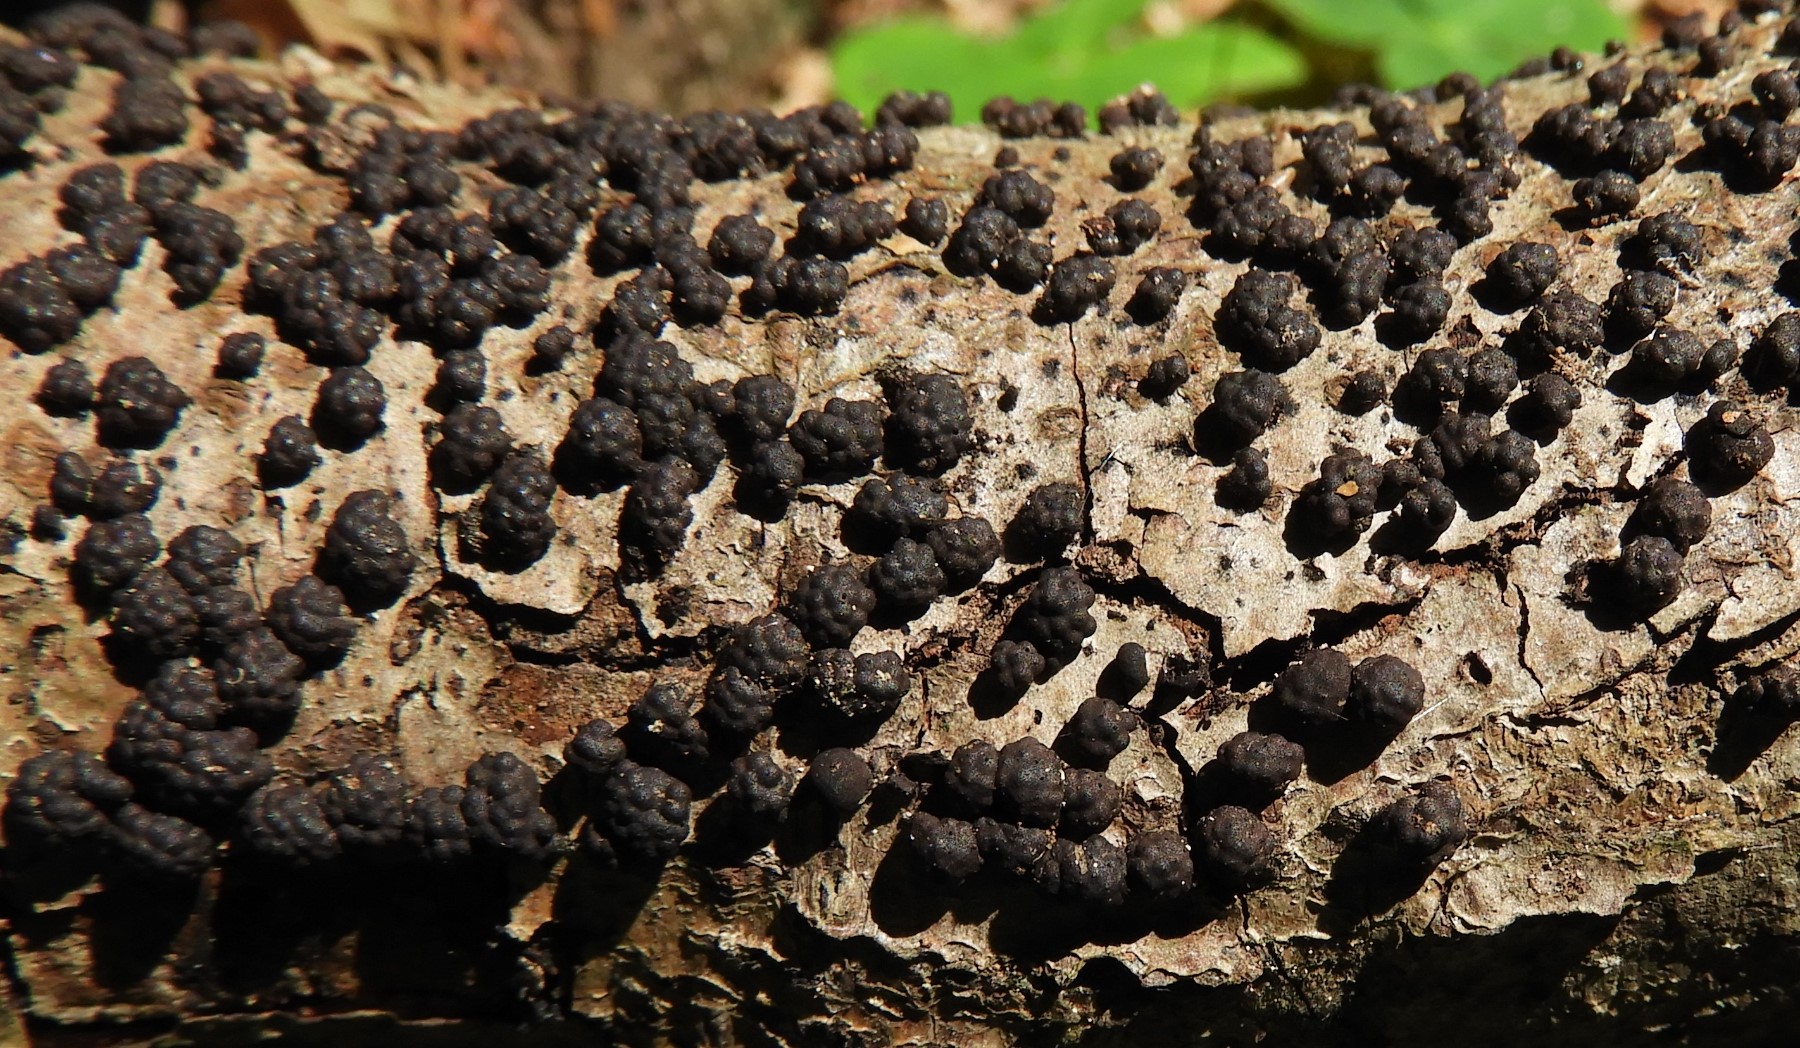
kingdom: Fungi
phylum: Ascomycota
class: Sordariomycetes
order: Xylariales
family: Hypoxylaceae
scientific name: Hypoxylaceae
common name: kulbærfamilien
